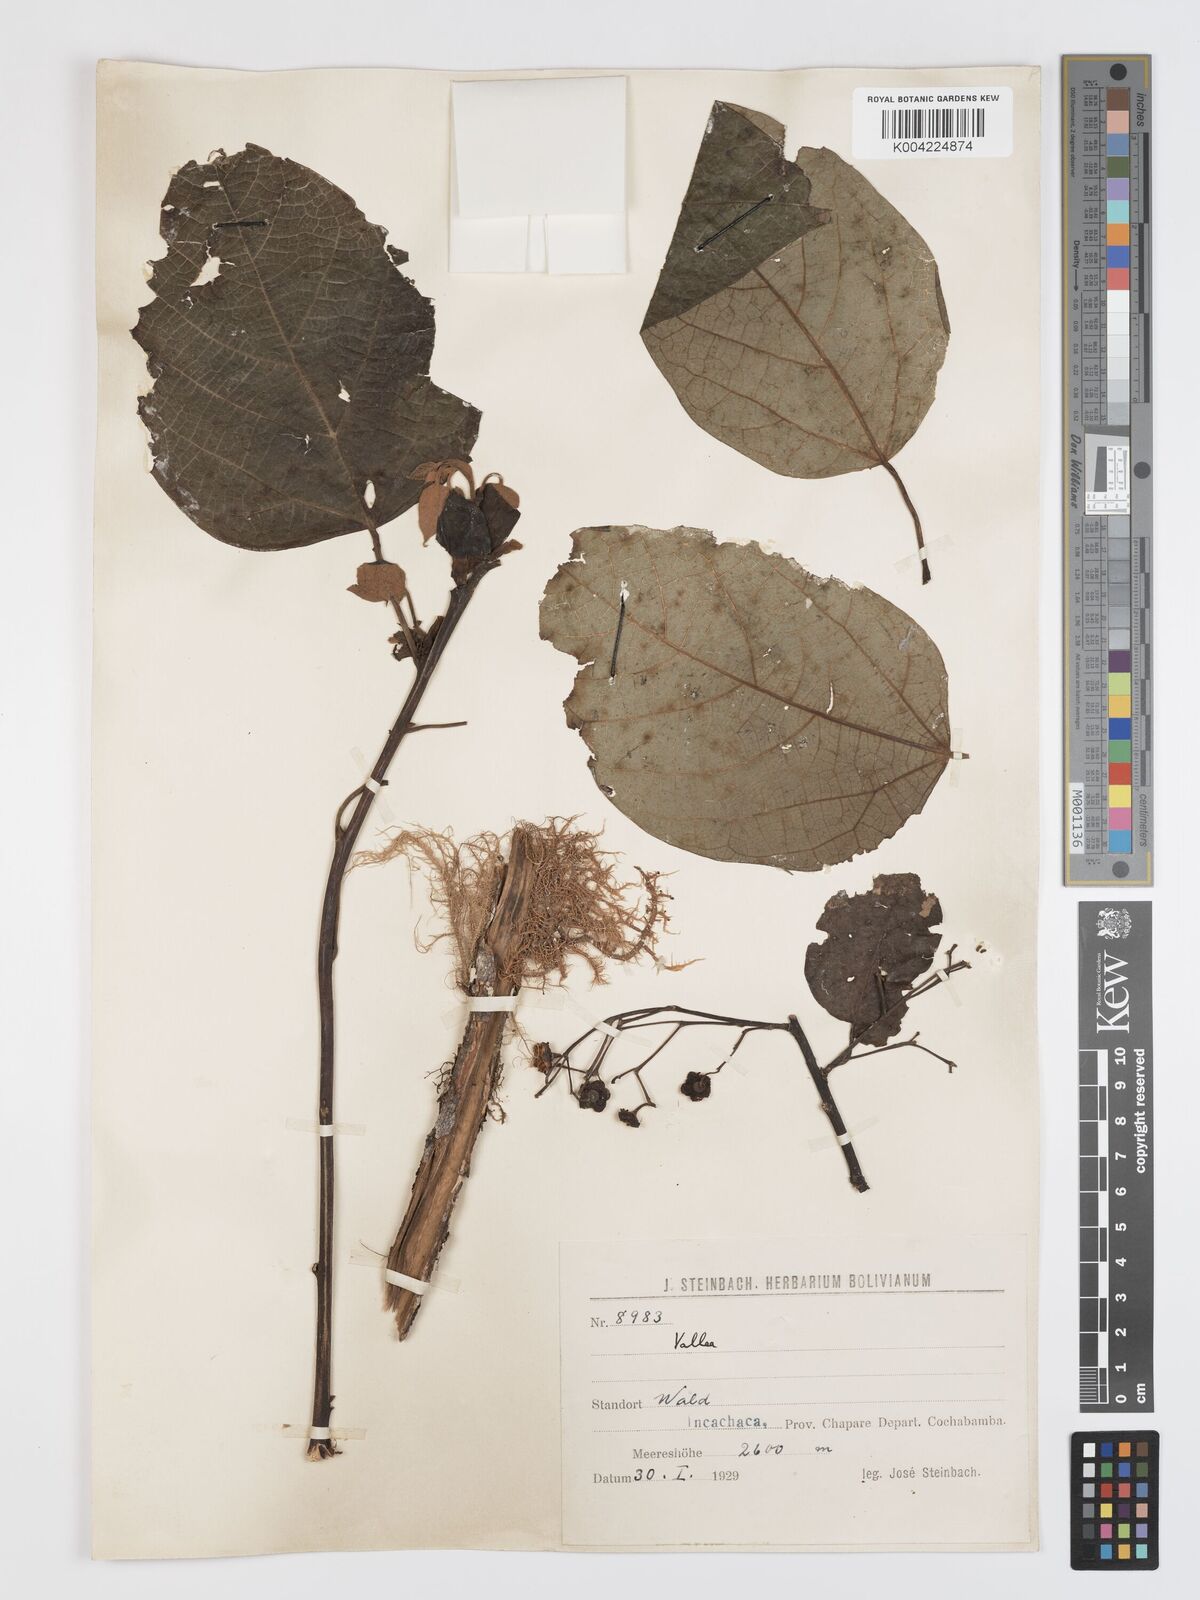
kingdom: Plantae
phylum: Tracheophyta
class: Magnoliopsida
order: Oxalidales
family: Elaeocarpaceae
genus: Vallea
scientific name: Vallea stipularis
